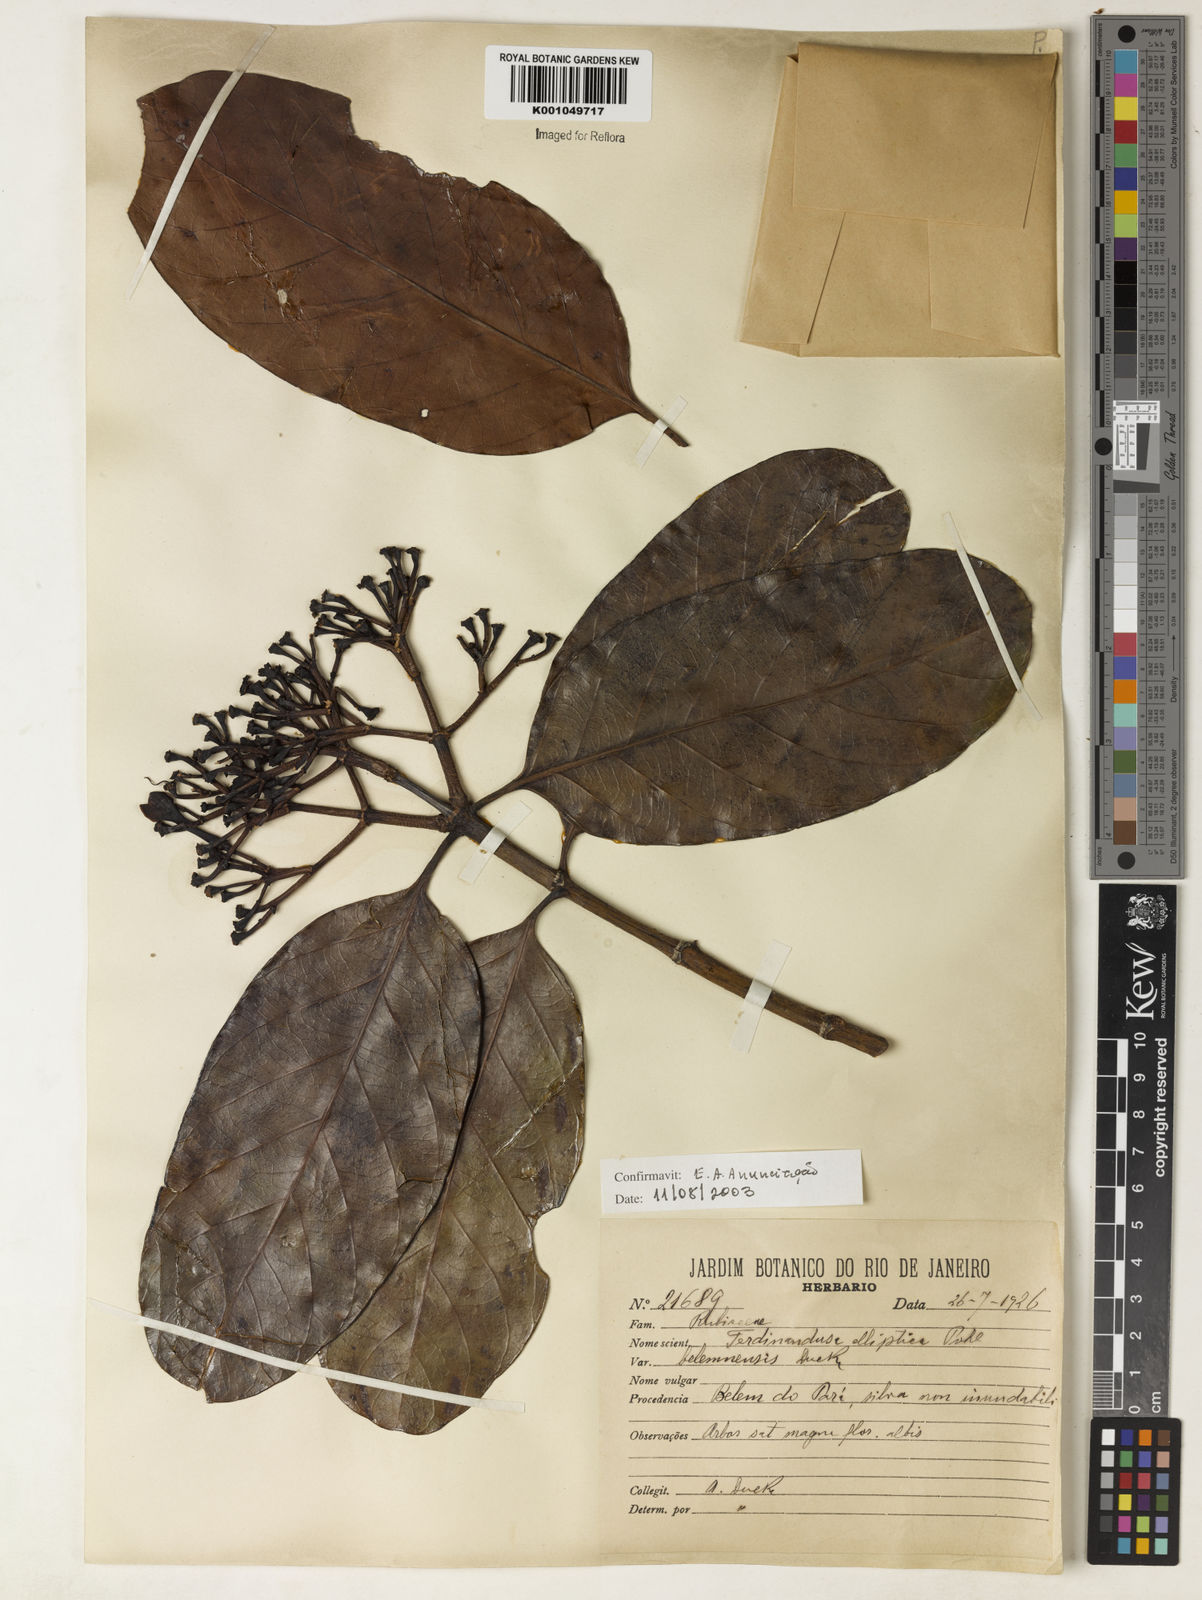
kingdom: Plantae
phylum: Tracheophyta
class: Magnoliopsida
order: Gentianales
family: Rubiaceae
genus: Ferdinandusa
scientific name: Ferdinandusa elliptica
